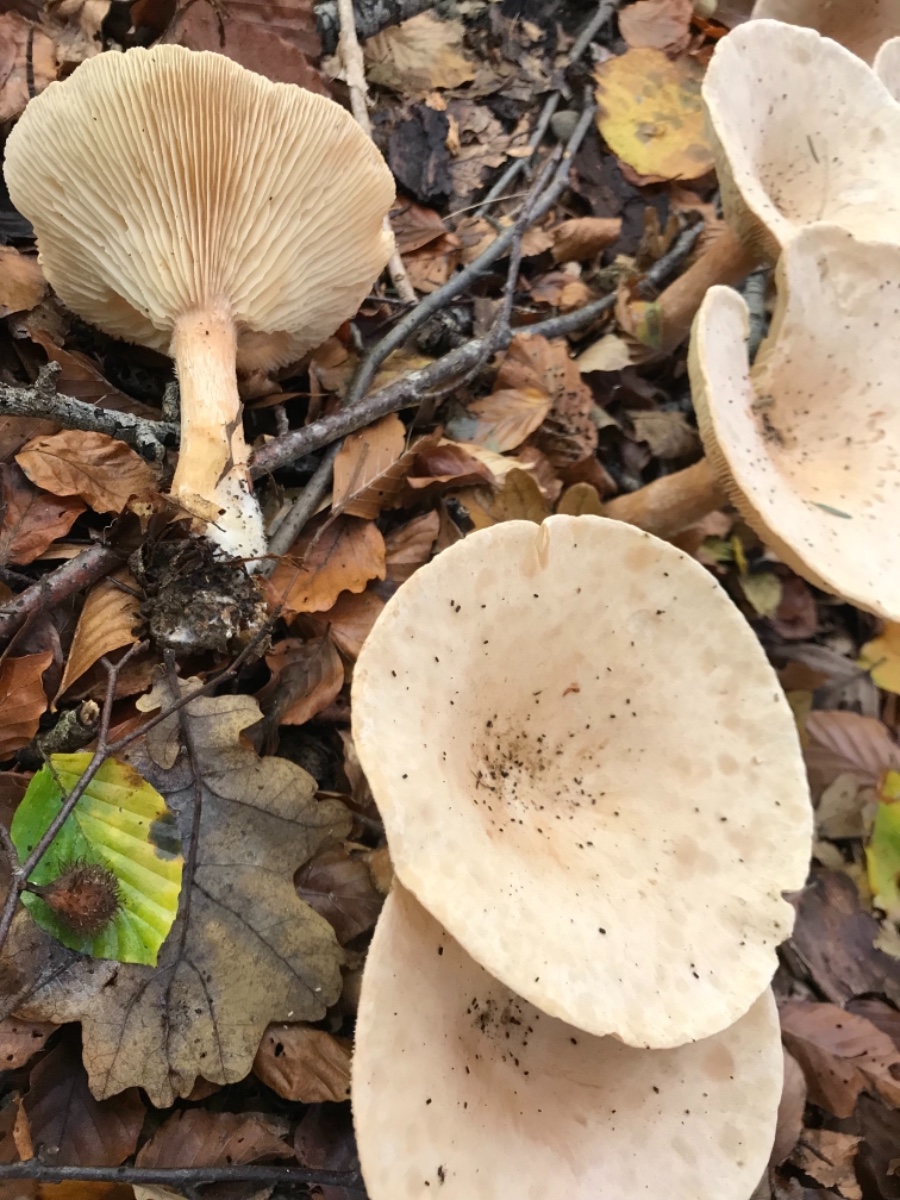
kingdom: Fungi
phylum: Basidiomycota
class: Agaricomycetes
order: Agaricales
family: Tricholomataceae
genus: Infundibulicybe
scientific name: Infundibulicybe geotropa
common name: stor tragthat
